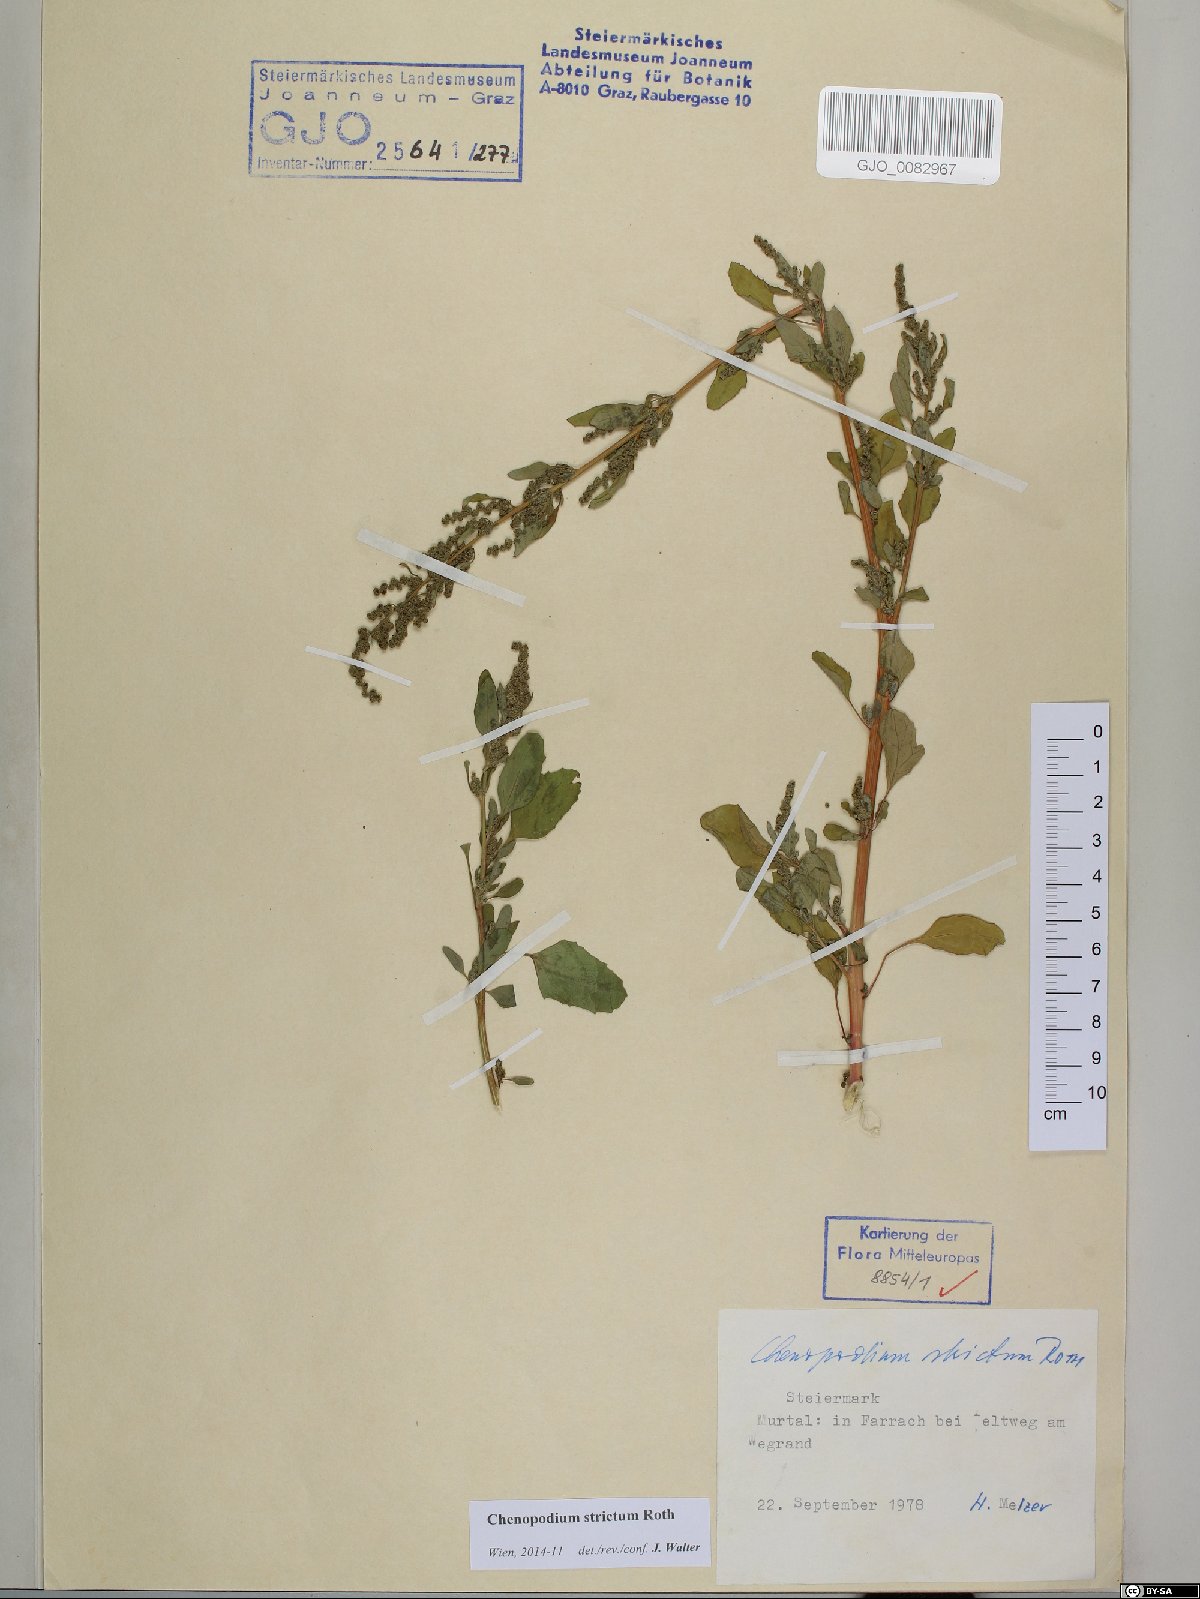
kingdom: Plantae
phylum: Tracheophyta
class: Magnoliopsida
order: Caryophyllales
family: Amaranthaceae
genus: Chenopodium
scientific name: Chenopodium album
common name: Fat-hen
